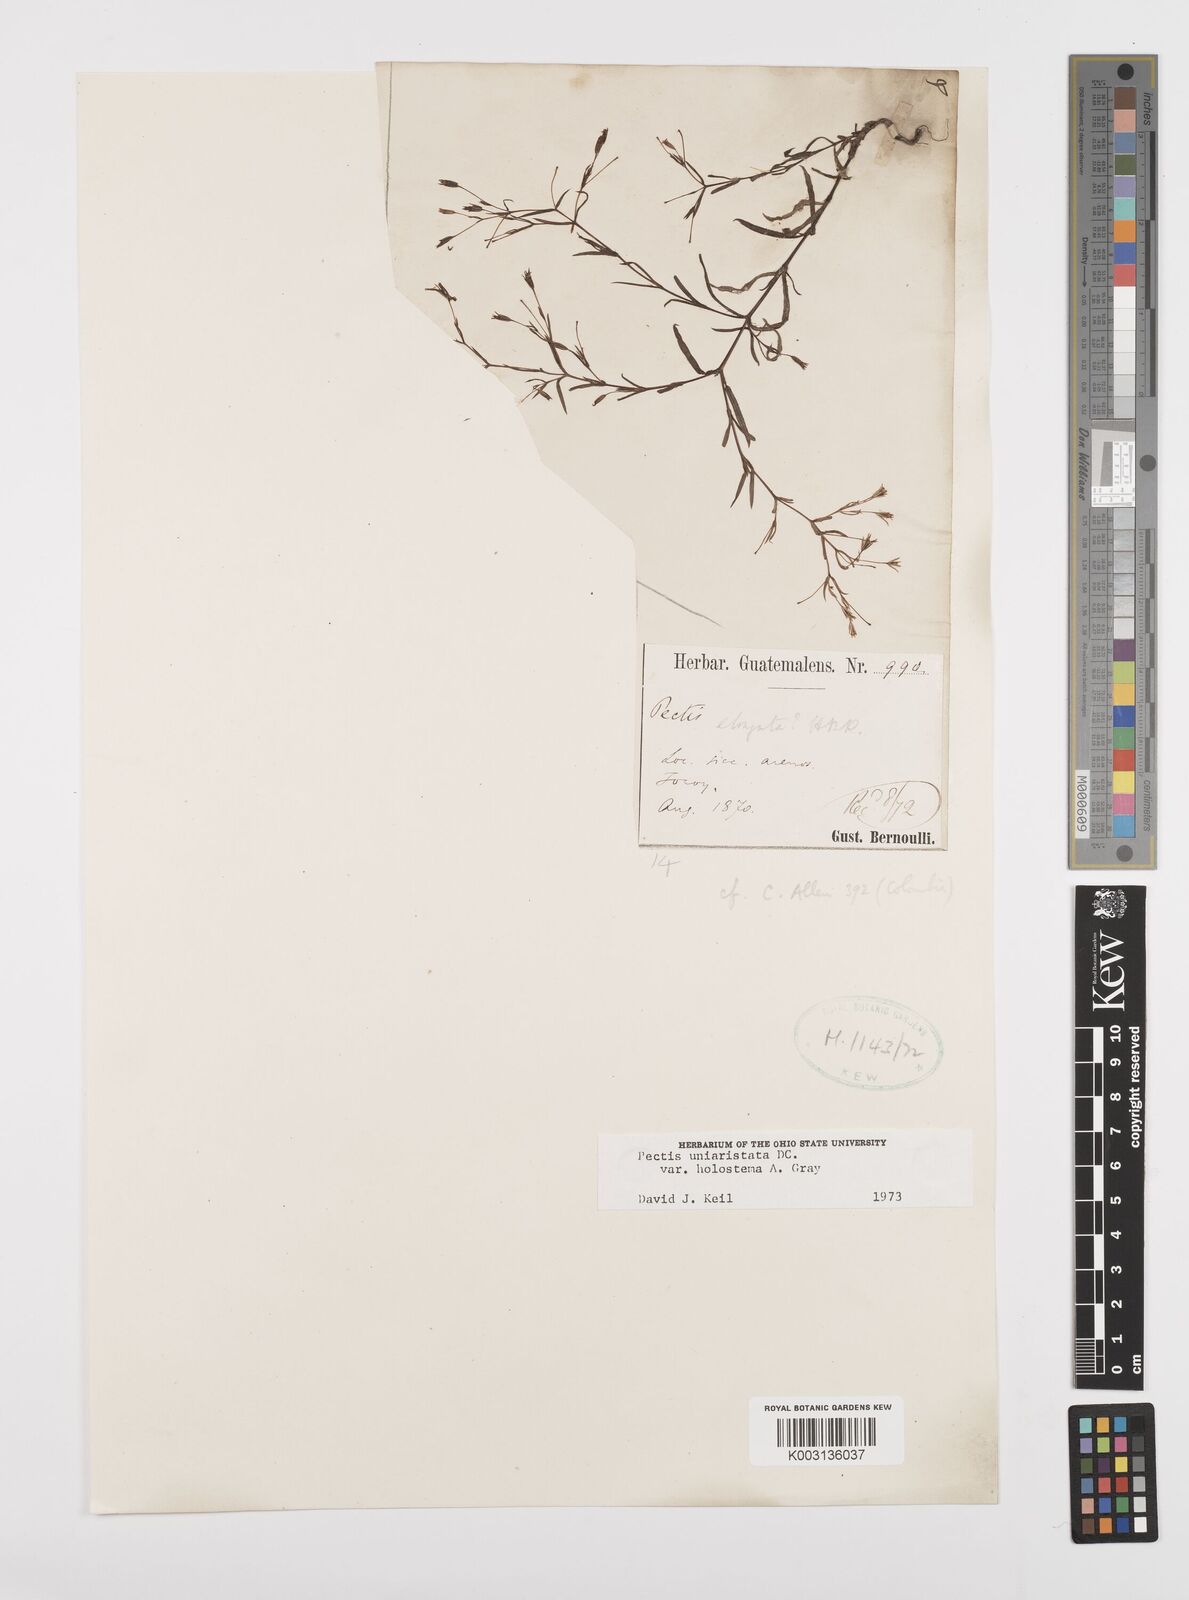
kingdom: Plantae
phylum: Tracheophyta
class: Magnoliopsida
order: Asterales
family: Asteraceae
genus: Pectis
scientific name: Pectis uniaristata
